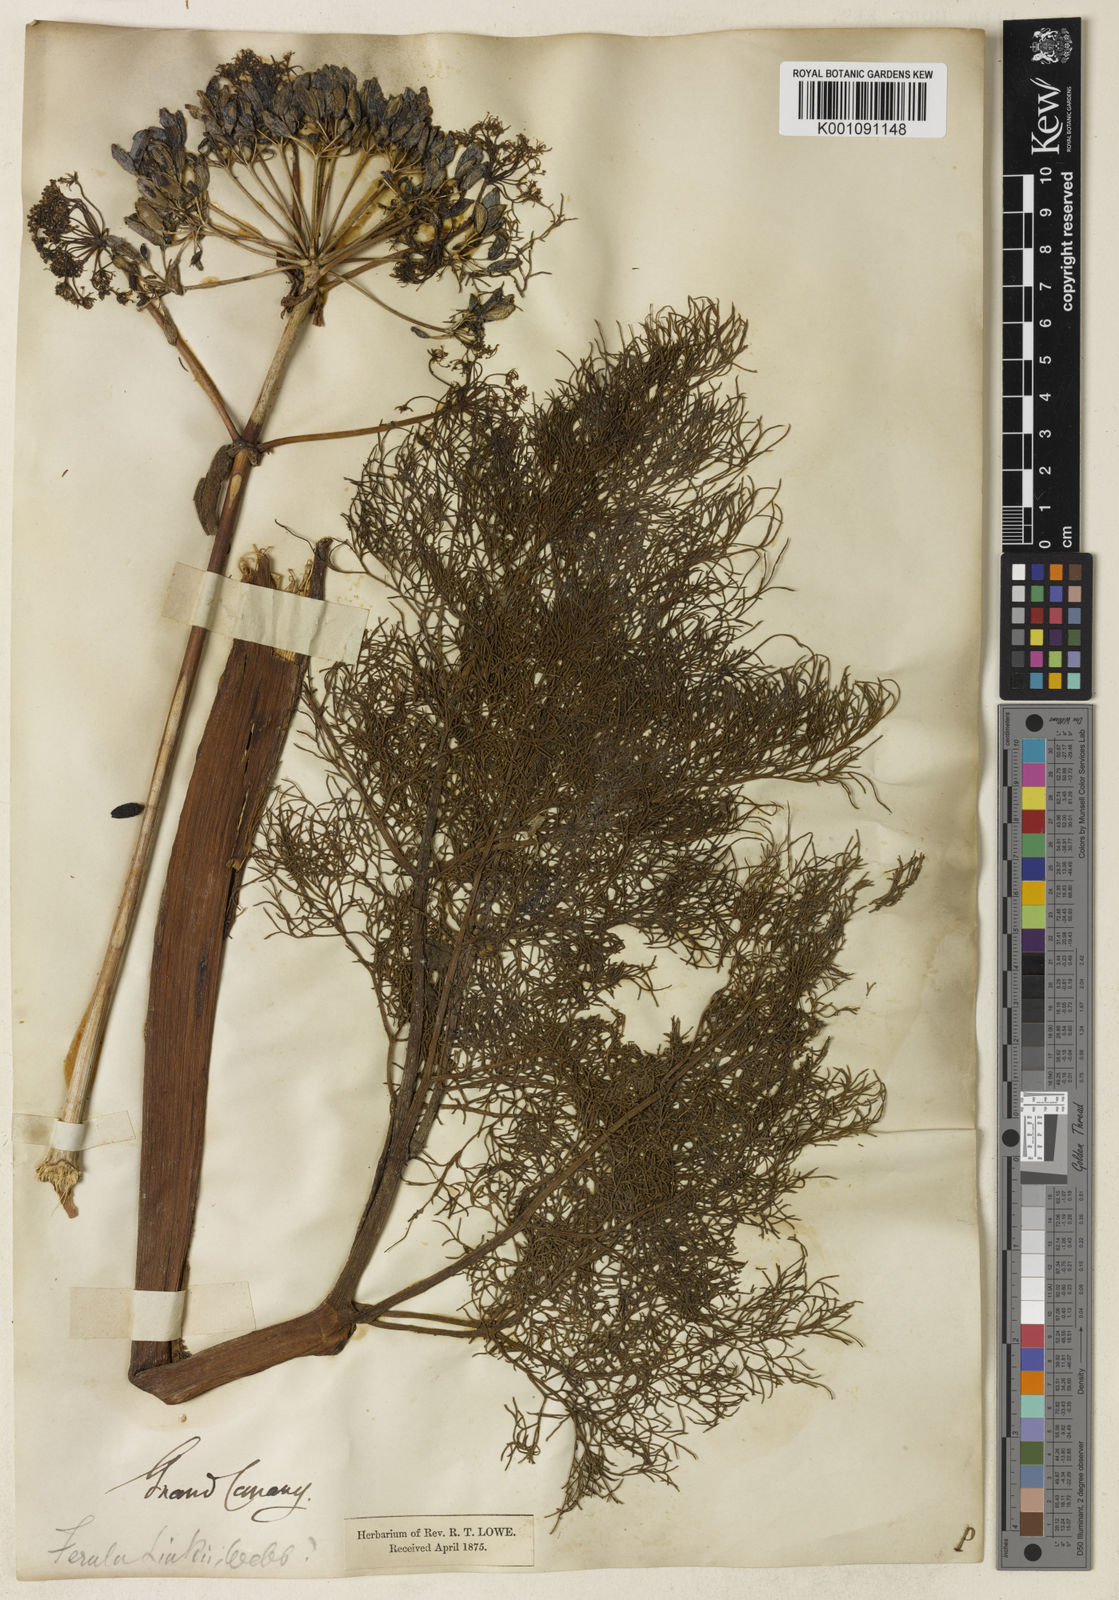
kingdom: Plantae
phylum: Tracheophyta
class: Magnoliopsida
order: Apiales
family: Apiaceae
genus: Ferula
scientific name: Ferula communis
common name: Giant fennel
